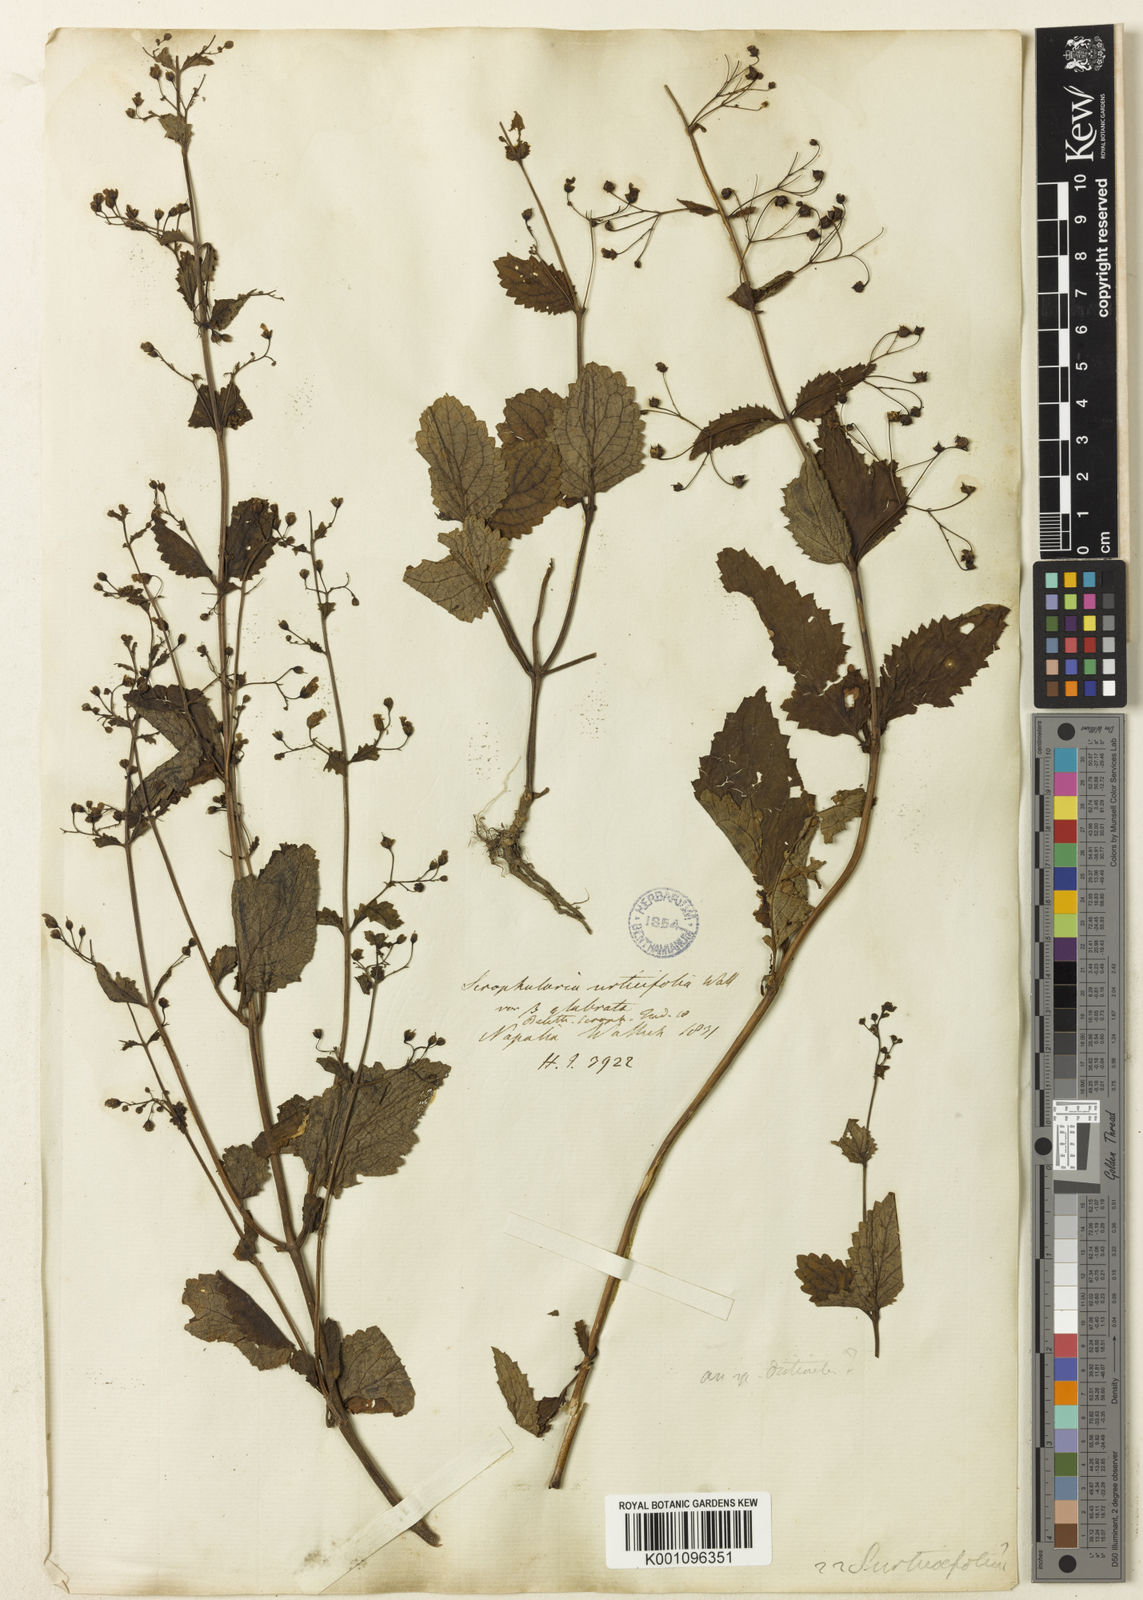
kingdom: Plantae
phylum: Tracheophyta
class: Magnoliopsida
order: Lamiales
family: Scrophulariaceae
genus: Scrophularia
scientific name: Scrophularia
